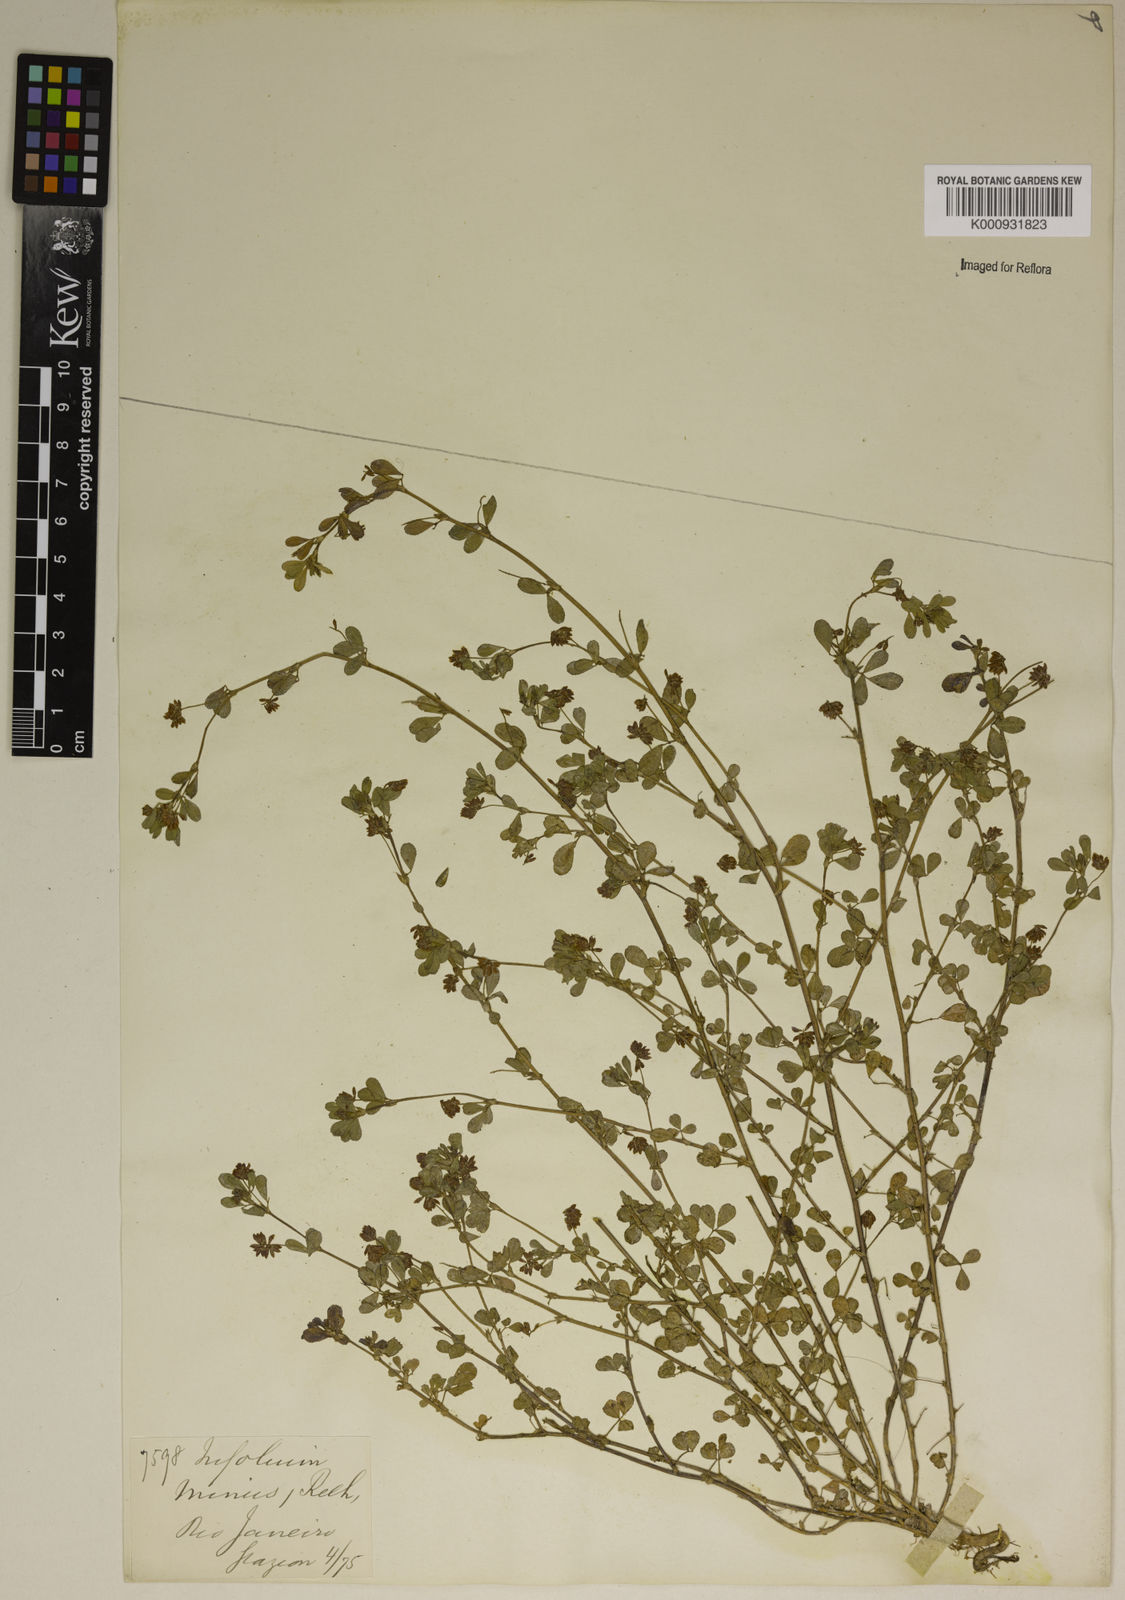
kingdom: Plantae
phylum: Tracheophyta
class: Magnoliopsida
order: Fabales
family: Fabaceae
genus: Trifolium
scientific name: Trifolium dubium
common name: Suckling clover
